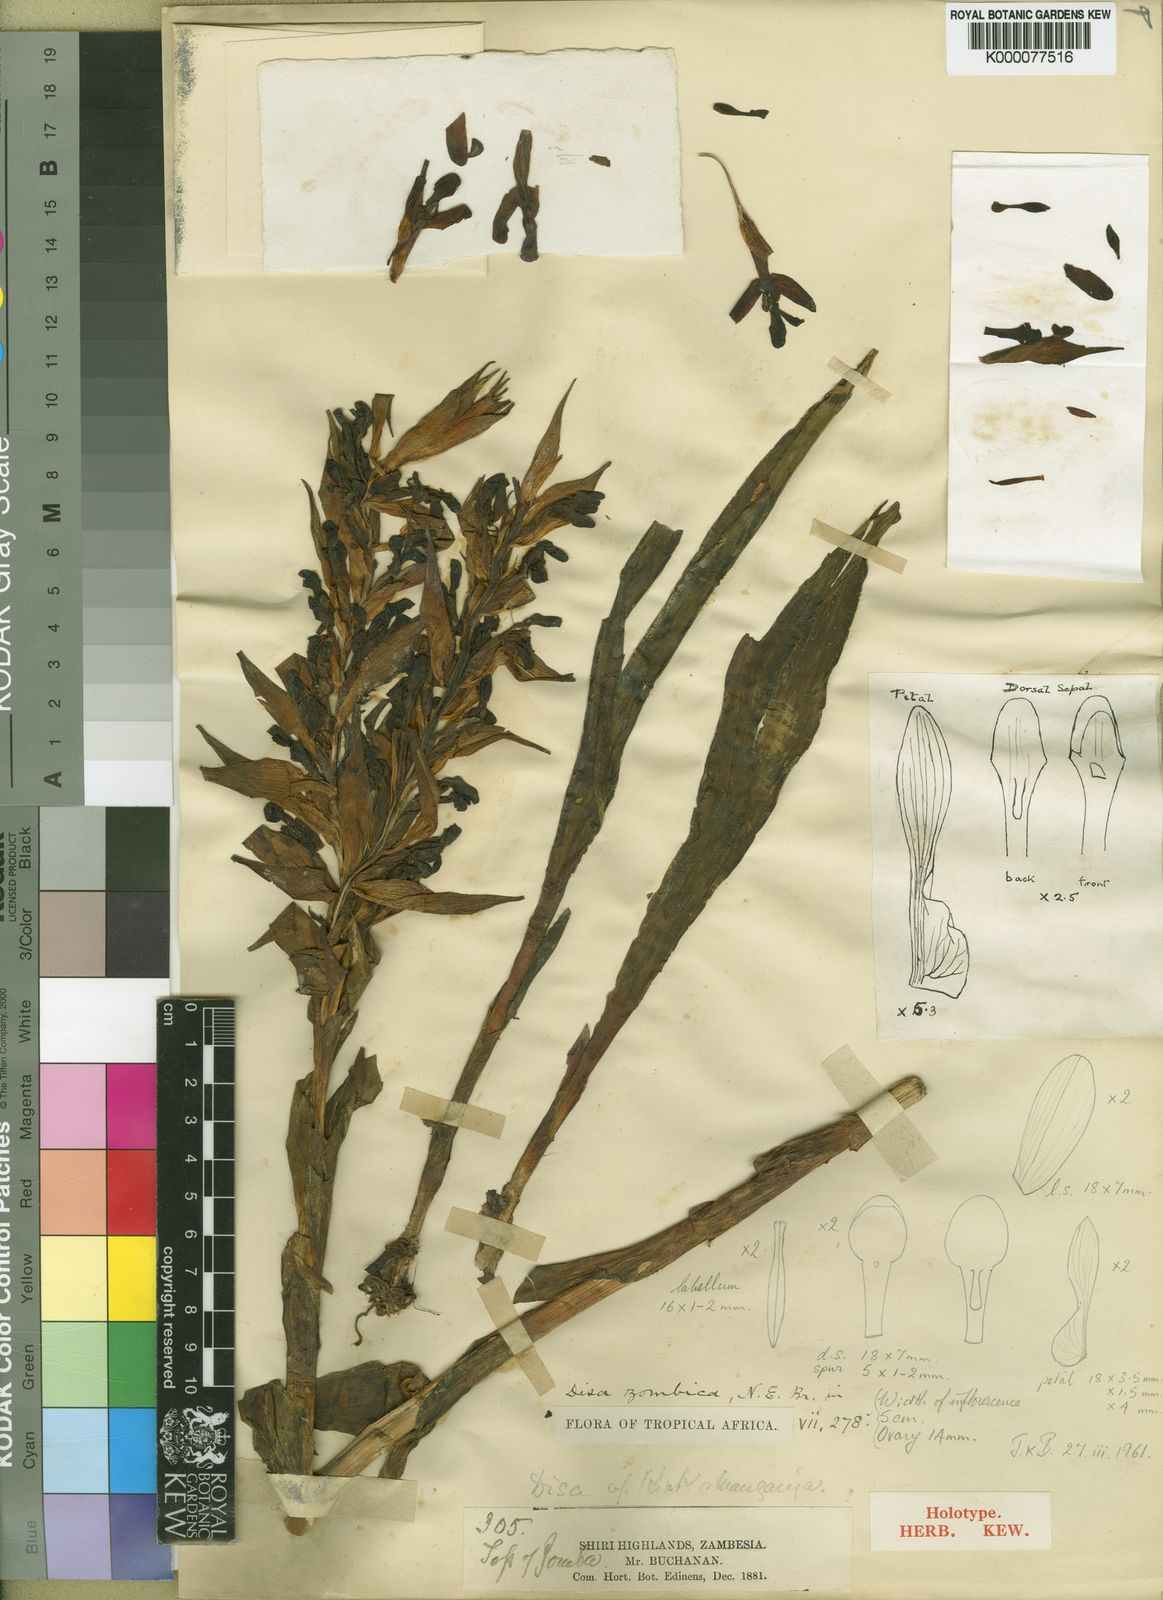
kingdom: Plantae
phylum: Tracheophyta
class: Liliopsida
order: Asparagales
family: Orchidaceae
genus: Disa
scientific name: Disa zombica
